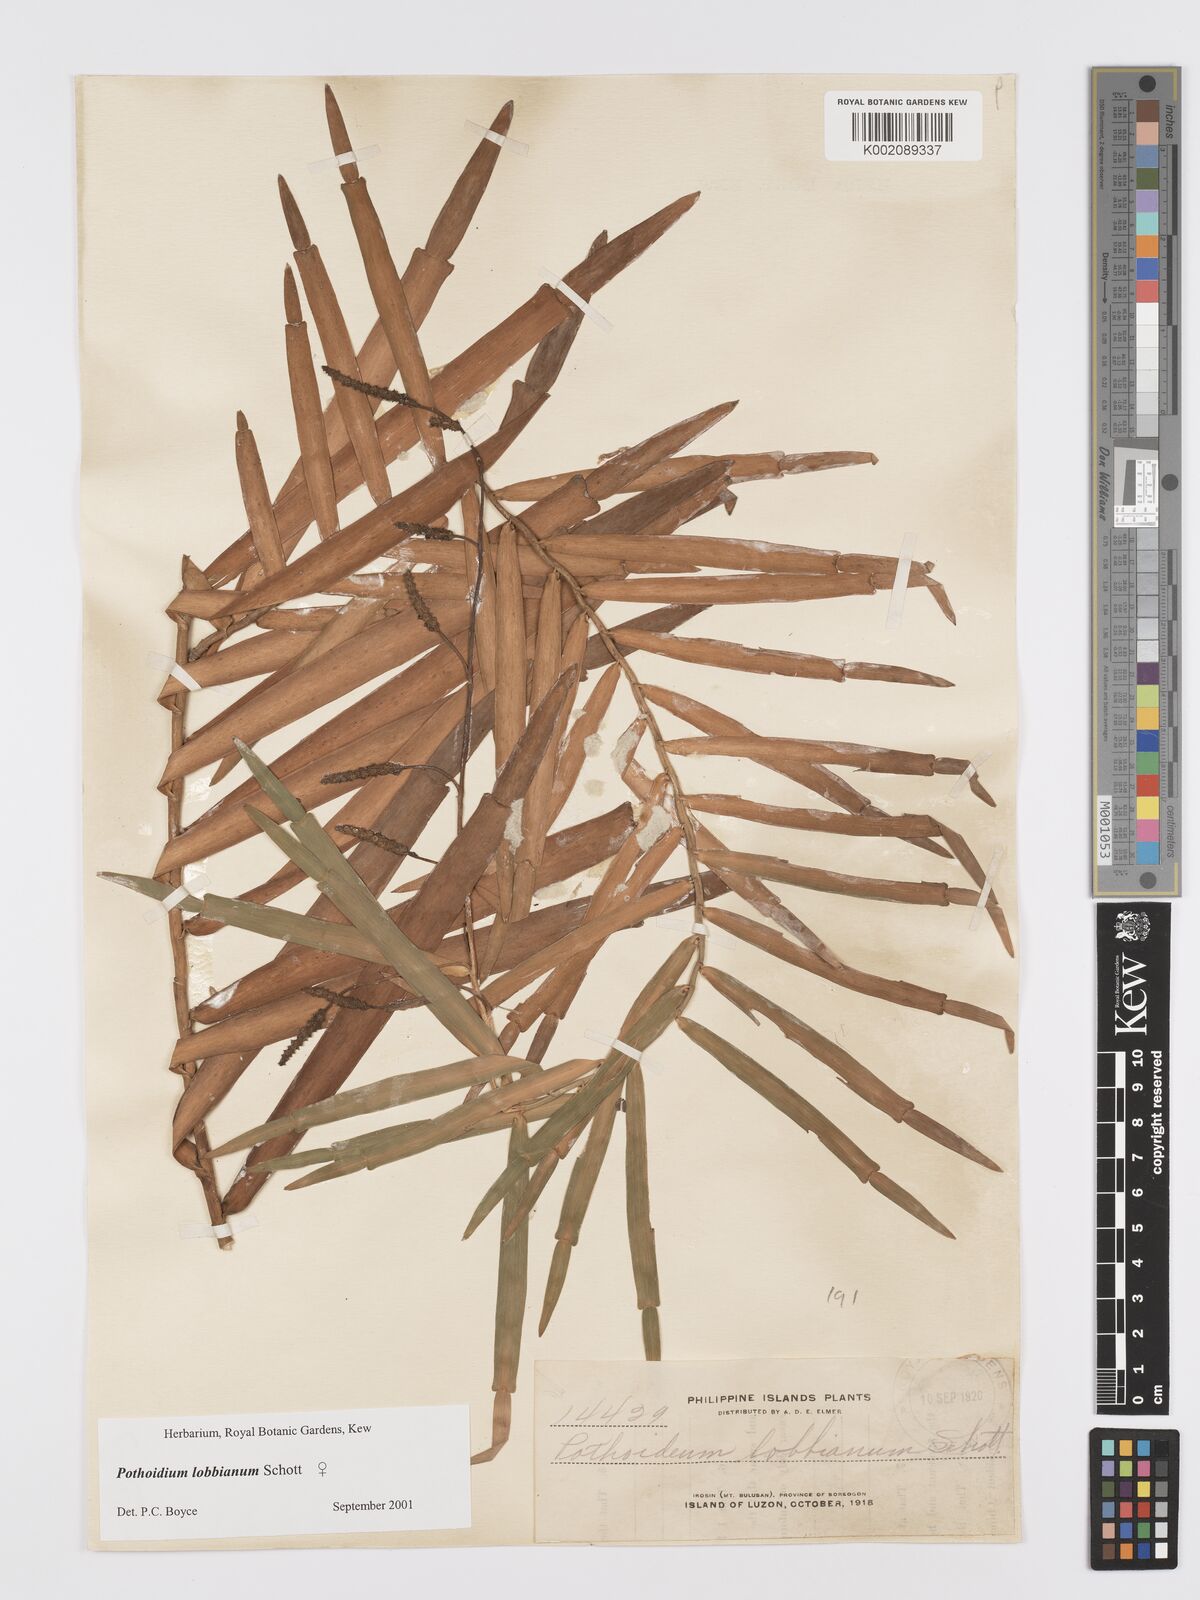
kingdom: Plantae
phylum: Tracheophyta
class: Liliopsida
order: Alismatales
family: Araceae
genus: Pothoidium
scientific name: Pothoidium lobbianum
